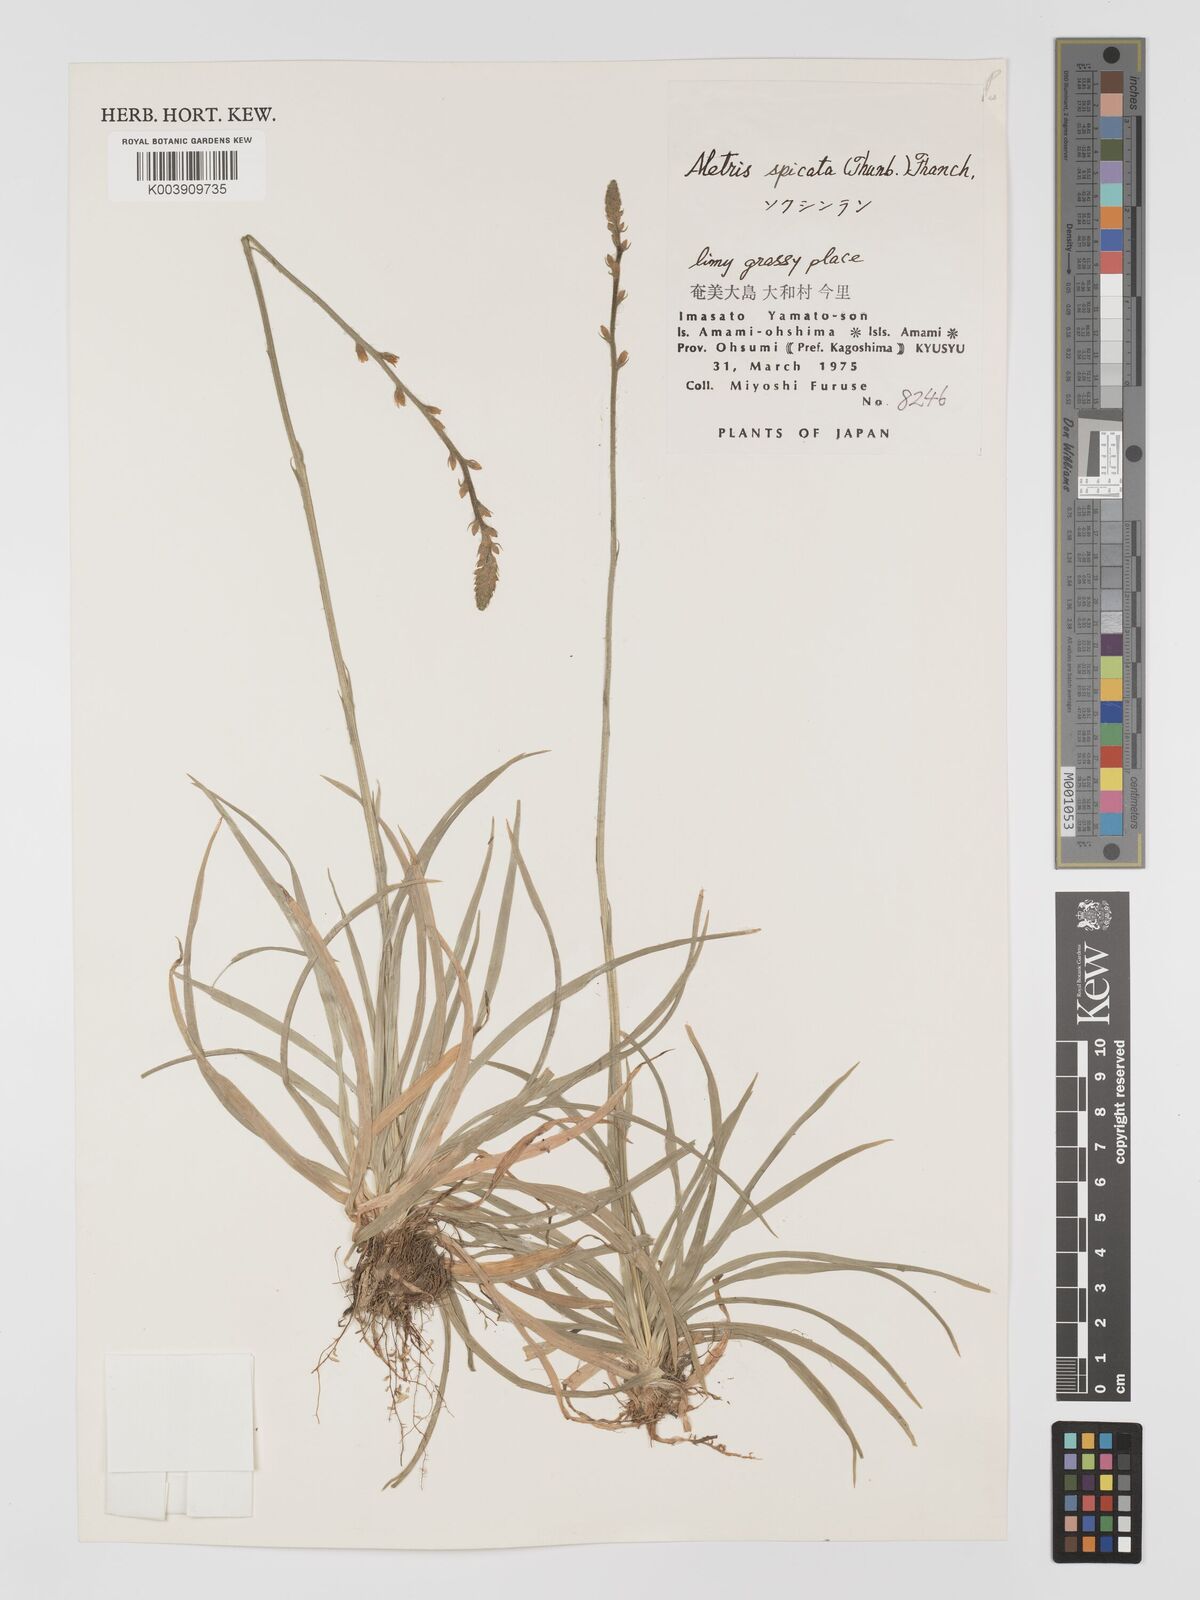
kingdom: Plantae
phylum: Tracheophyta
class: Liliopsida
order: Dioscoreales
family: Nartheciaceae
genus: Aletris
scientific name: Aletris spicata
